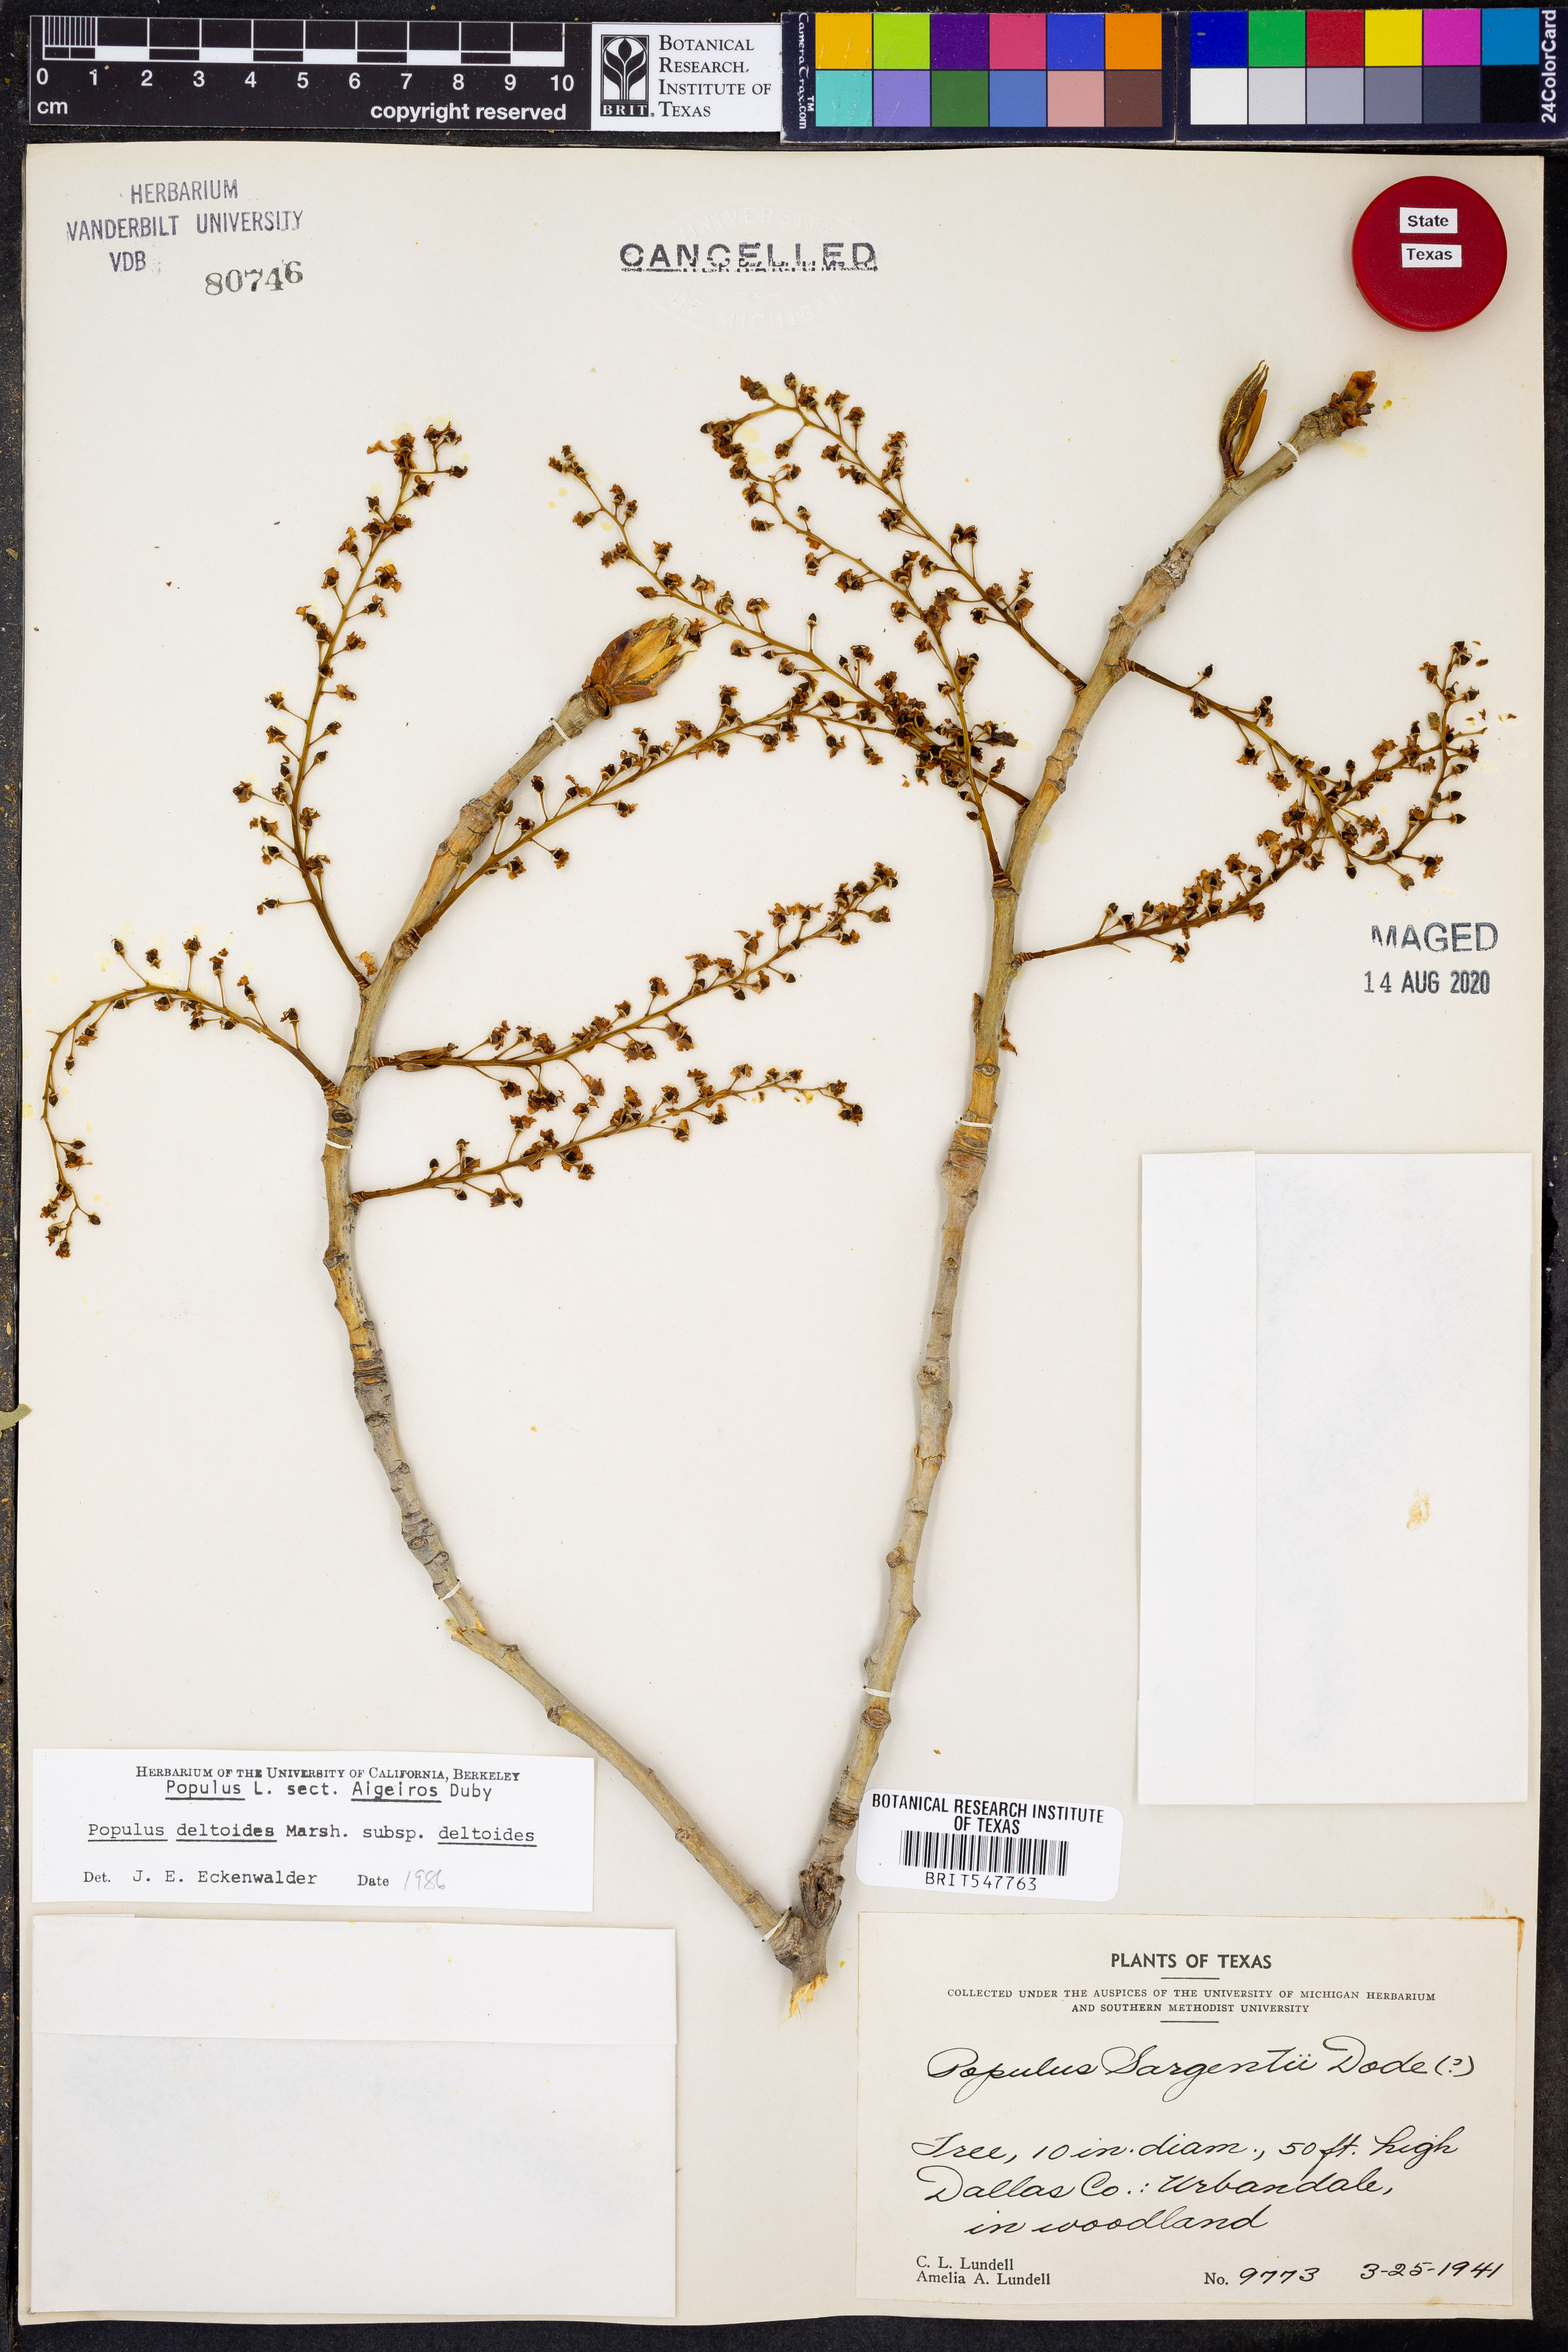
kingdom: Plantae
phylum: Tracheophyta
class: Magnoliopsida
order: Malpighiales
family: Salicaceae
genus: Populus
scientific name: Populus deltoides
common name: Eastern cottonwood
